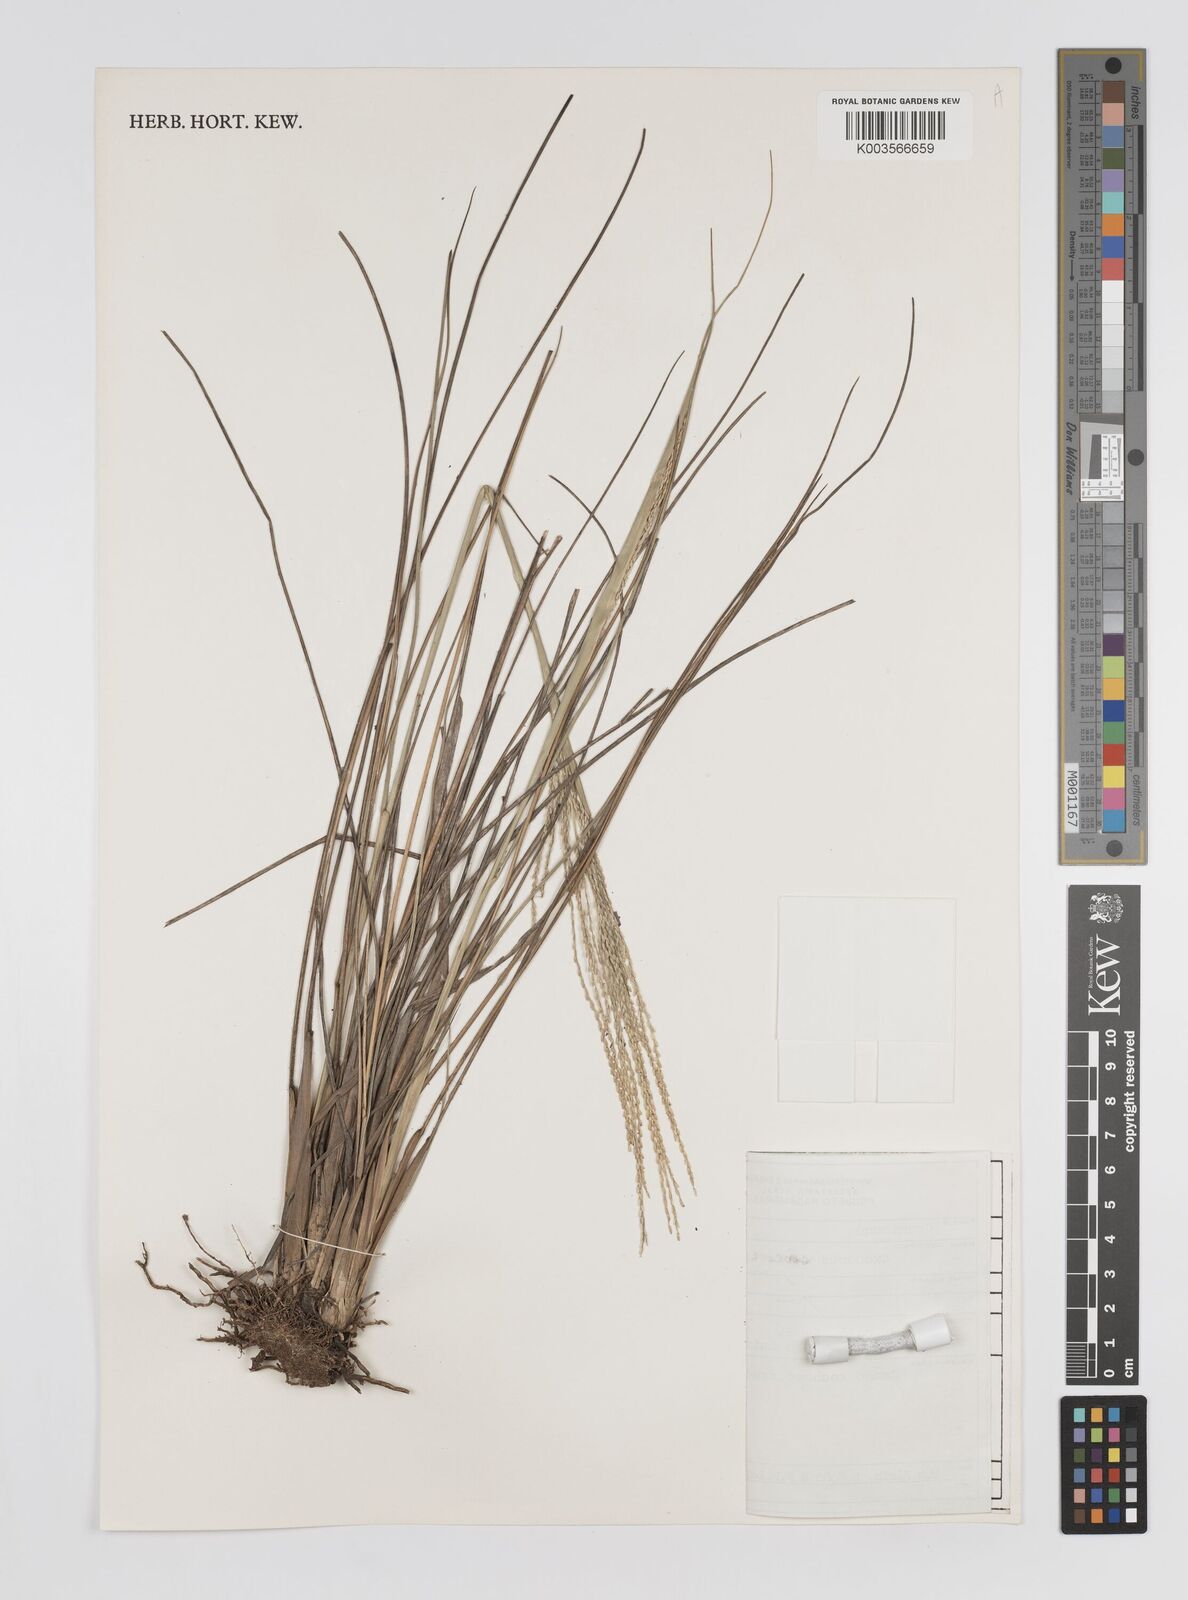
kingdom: Plantae
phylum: Tracheophyta
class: Liliopsida
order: Poales
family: Poaceae
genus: Axonopus
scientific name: Axonopus siccus
